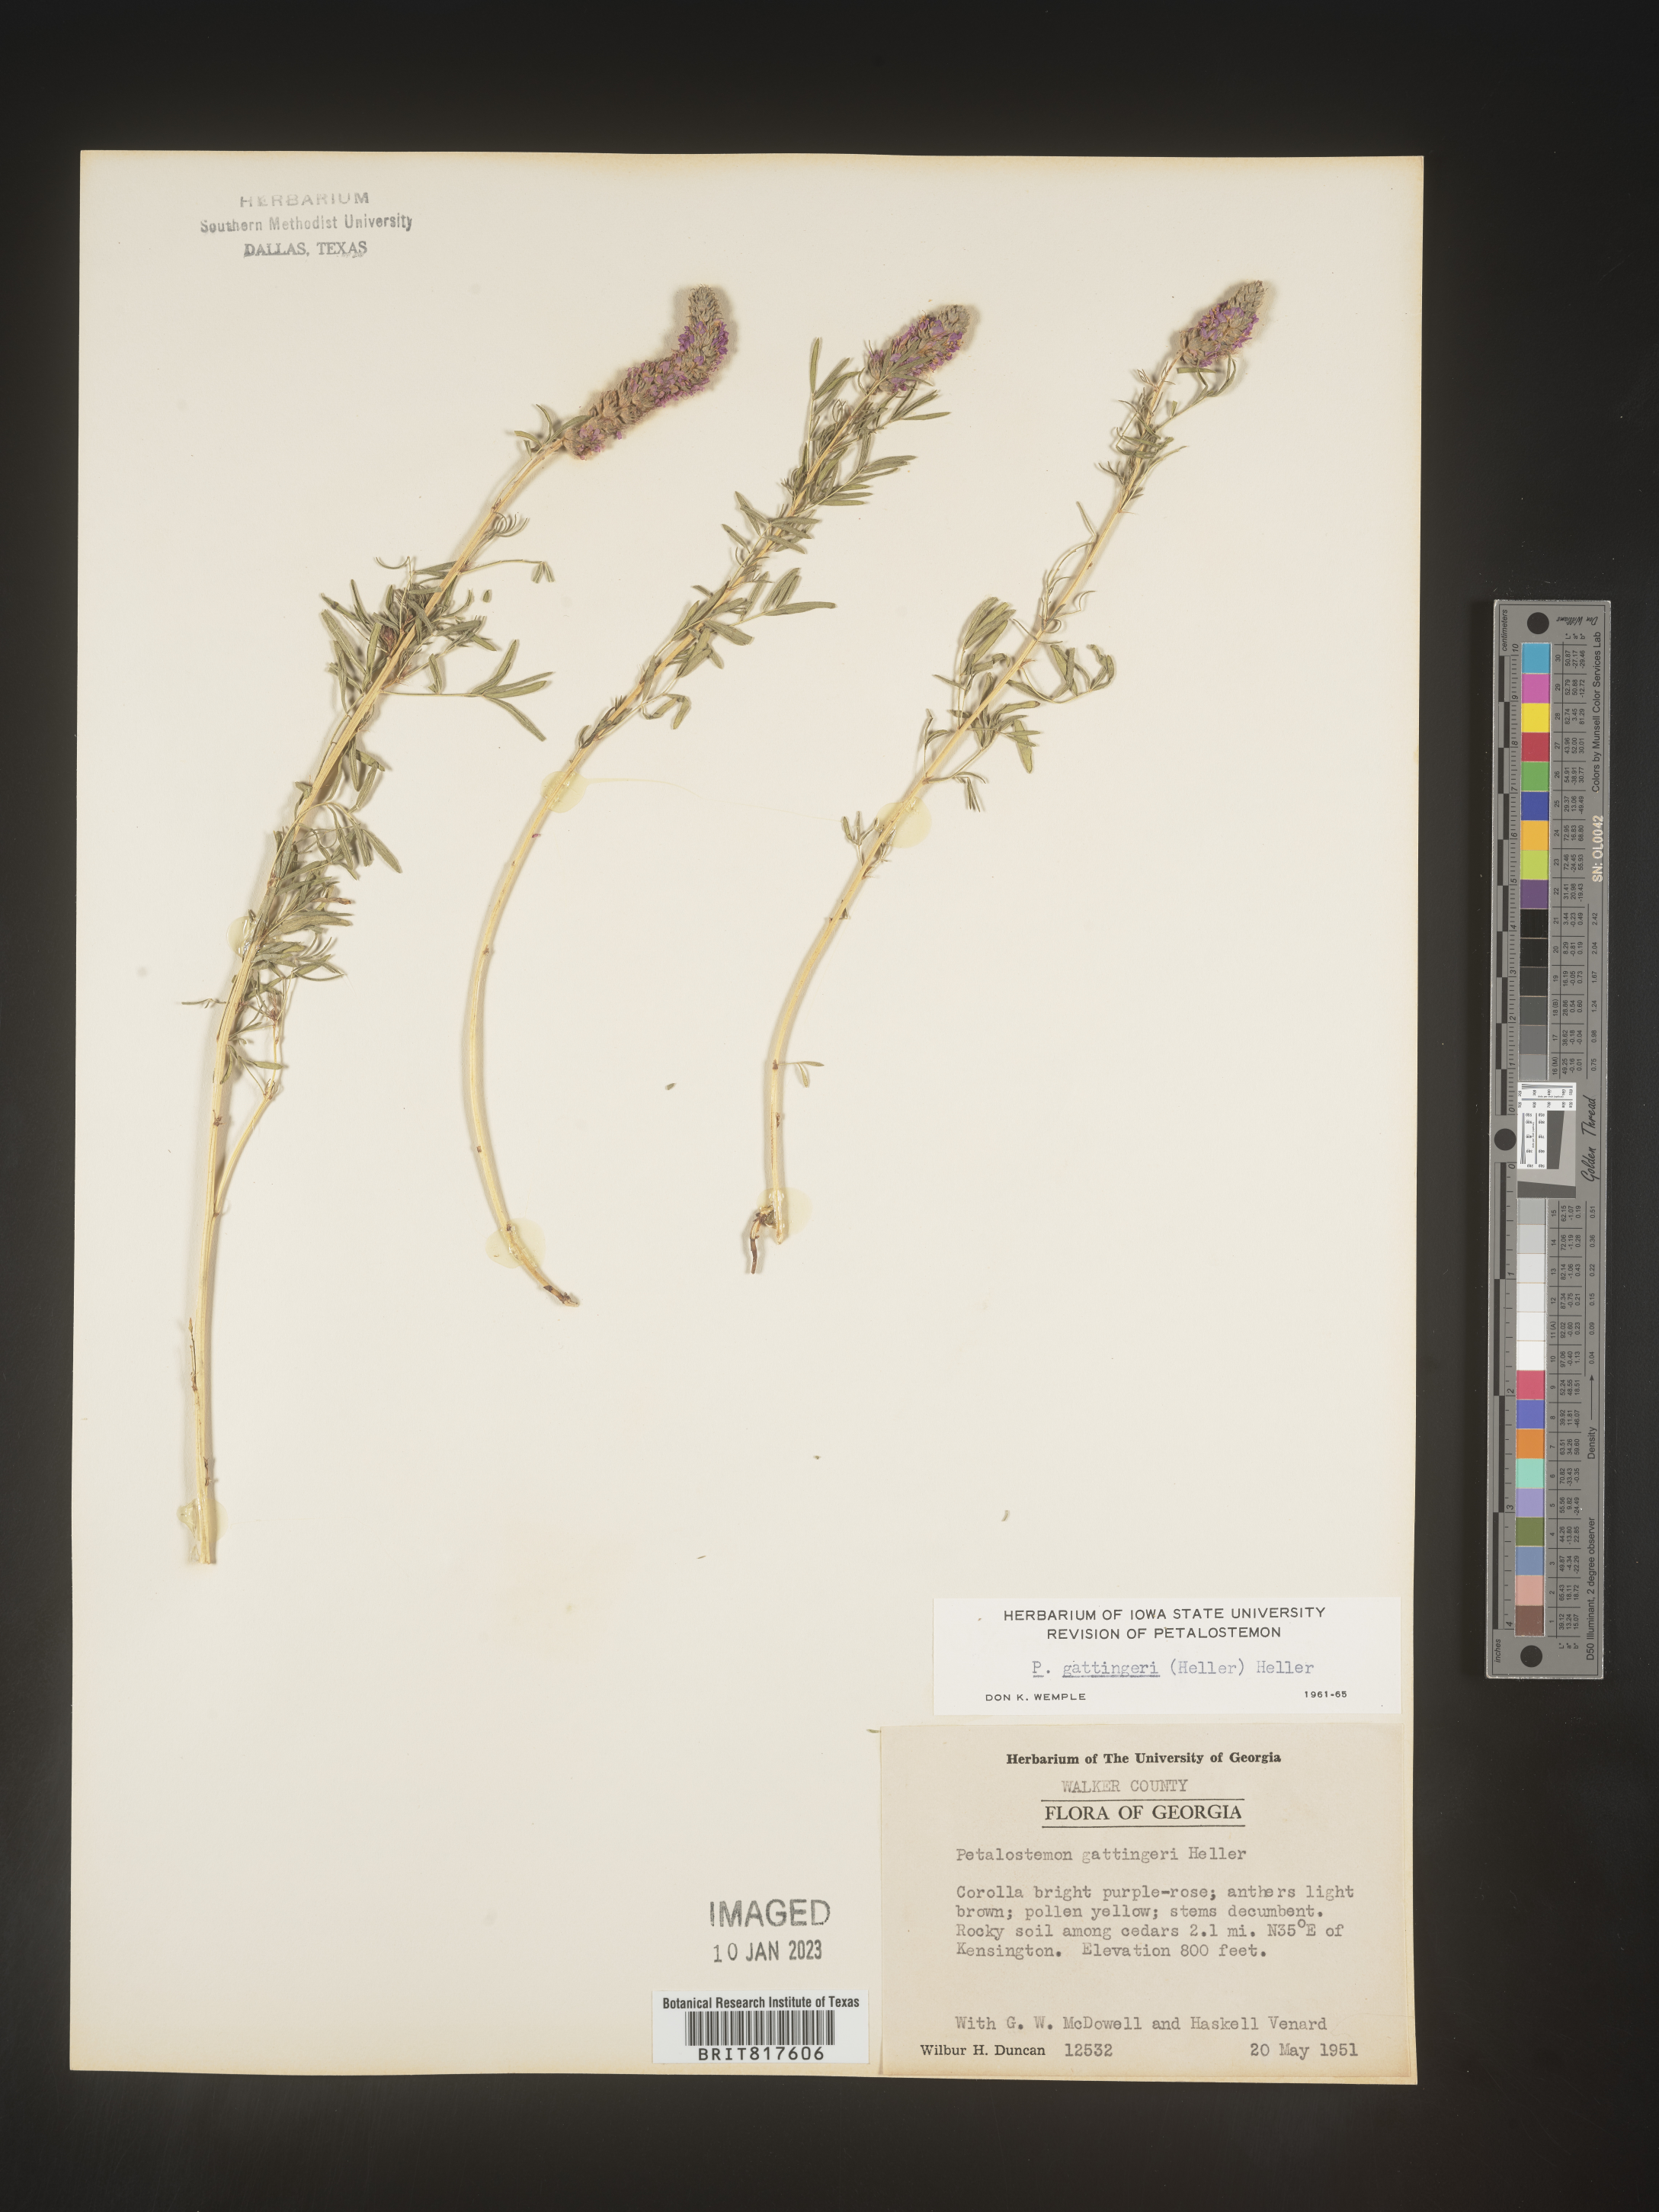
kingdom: Plantae
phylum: Tracheophyta
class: Magnoliopsida
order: Fabales
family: Fabaceae
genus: Dalea
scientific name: Dalea gattingeri
